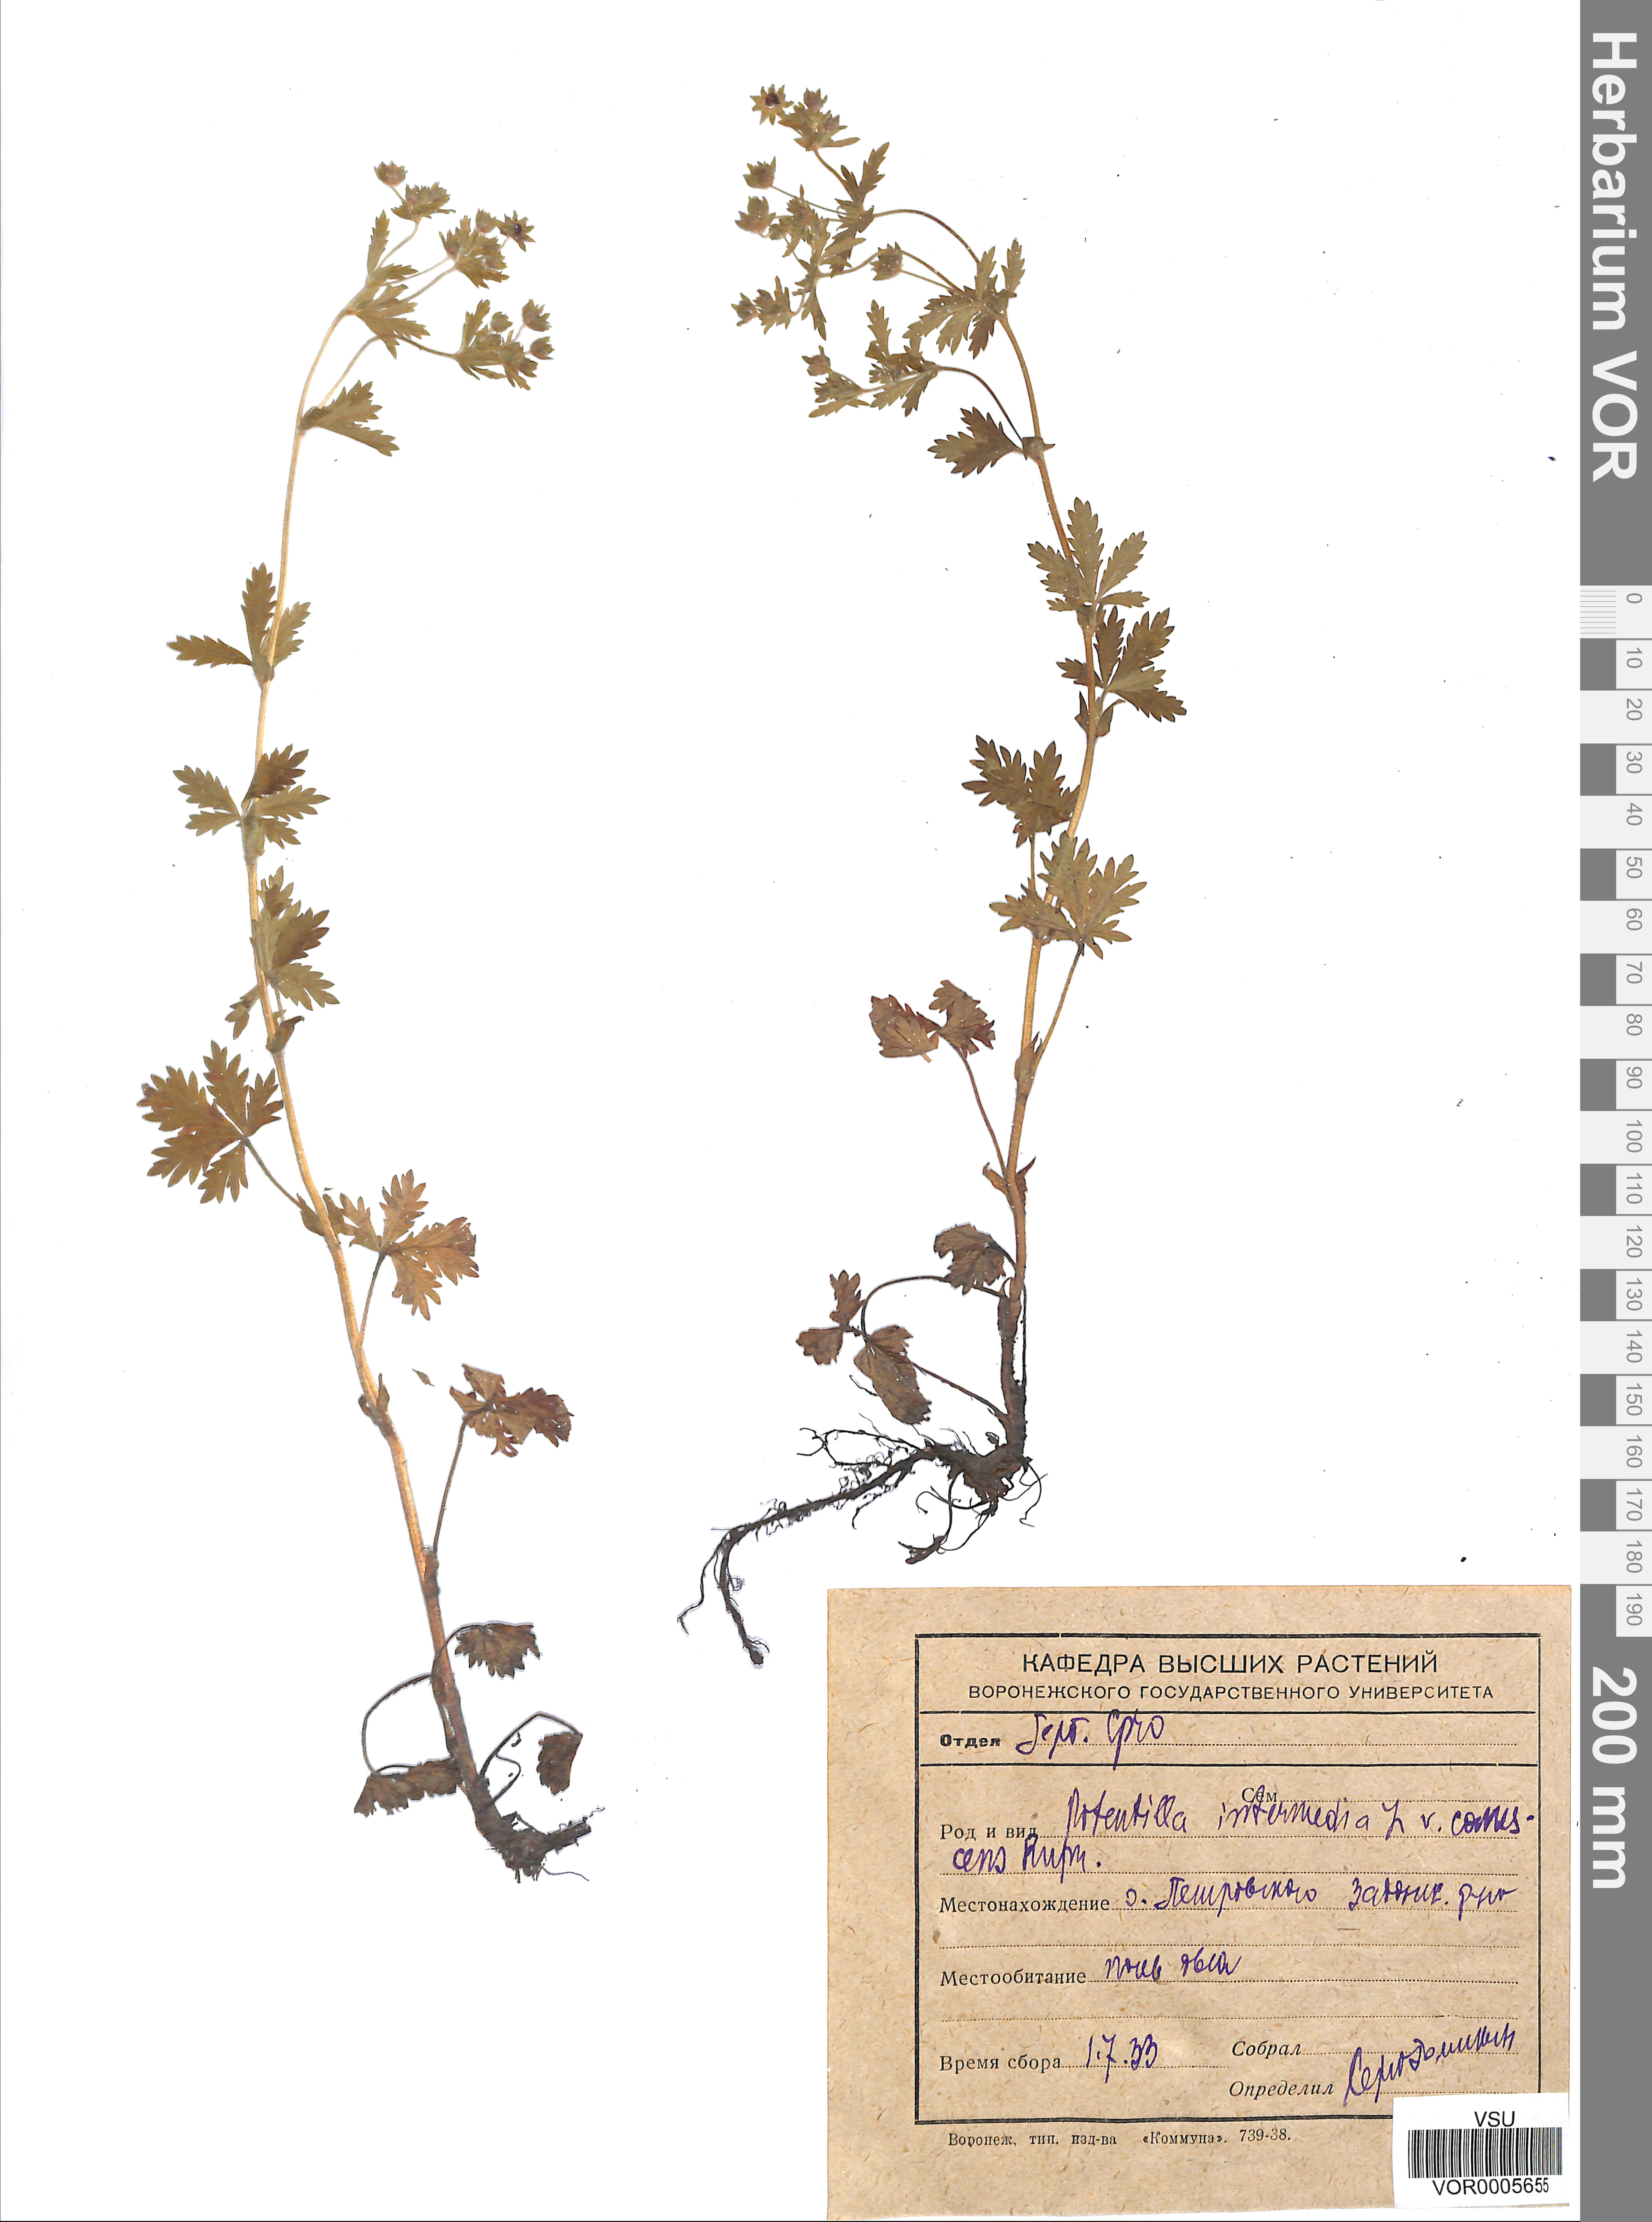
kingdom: Plantae
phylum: Tracheophyta
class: Magnoliopsida
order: Rosales
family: Rosaceae
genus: Potentilla
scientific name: Potentilla norvegica
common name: Ternate-leaved cinquefoil
